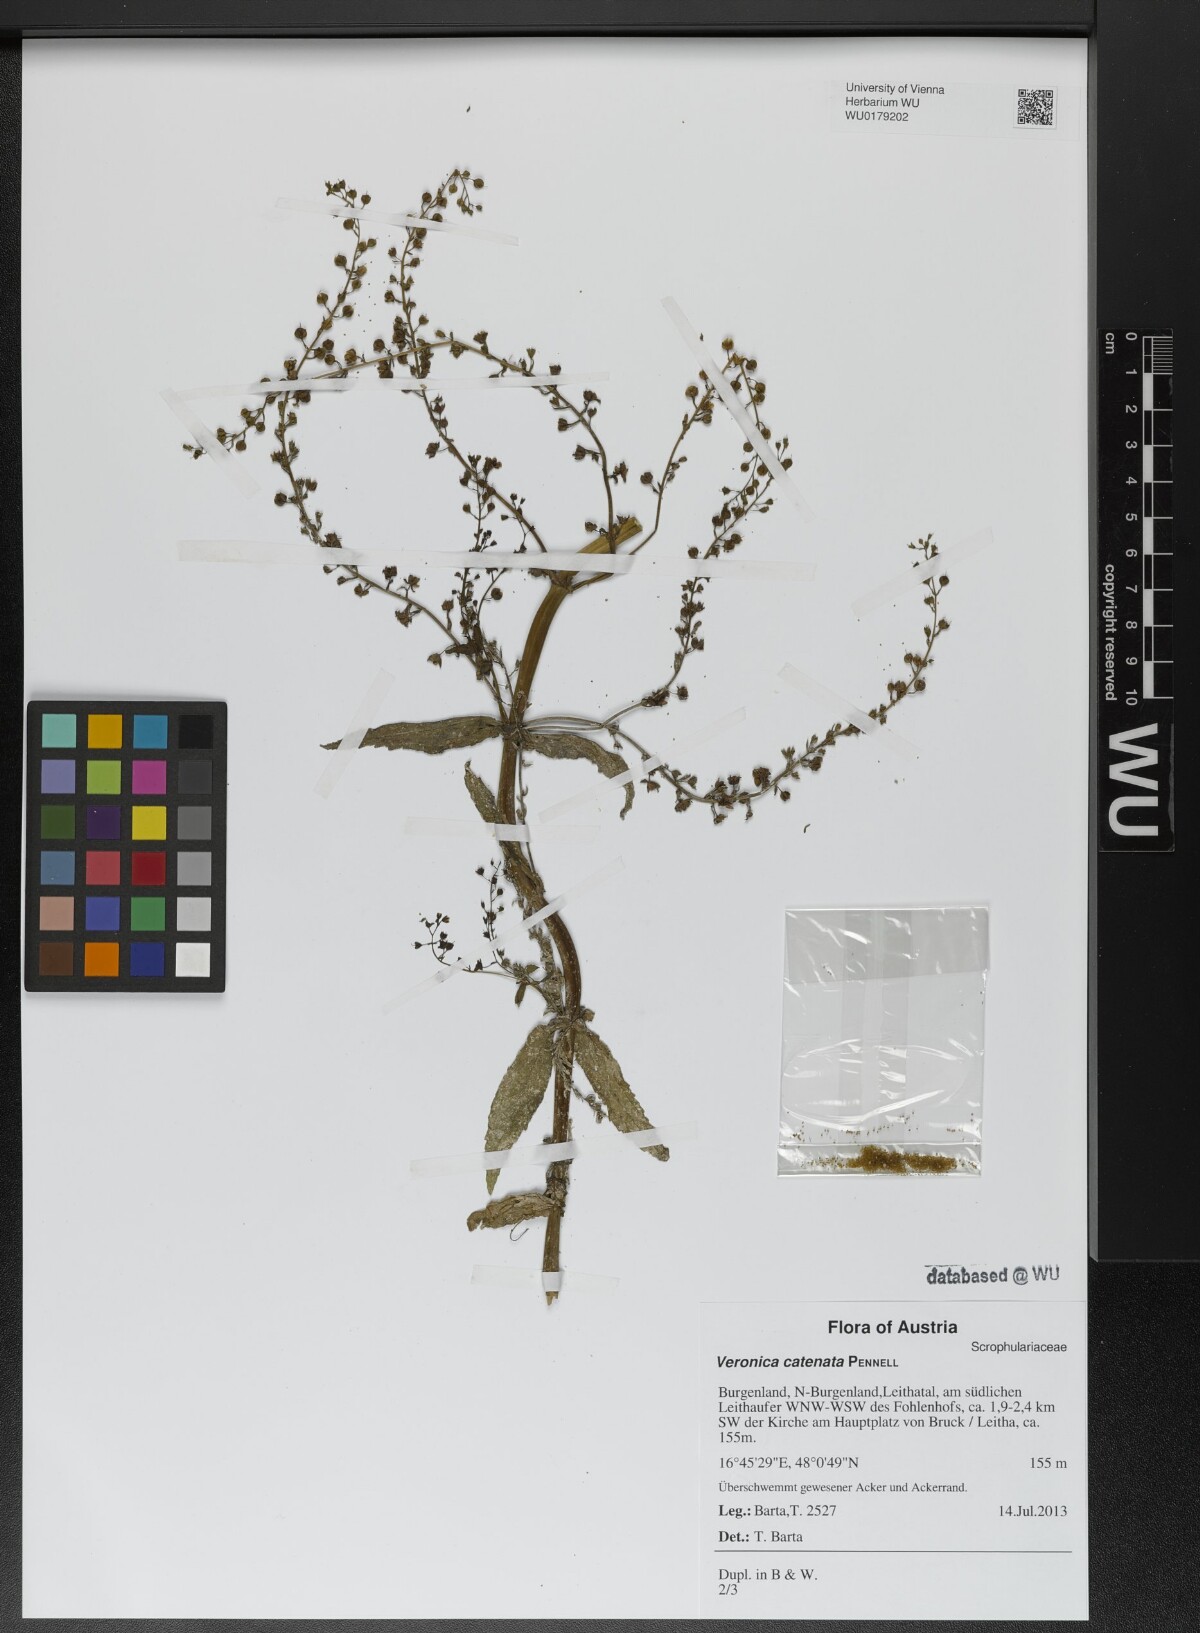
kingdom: Plantae
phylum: Tracheophyta
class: Magnoliopsida
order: Lamiales
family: Plantaginaceae
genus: Veronica
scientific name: Veronica catenata
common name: Pink water-speedwell
